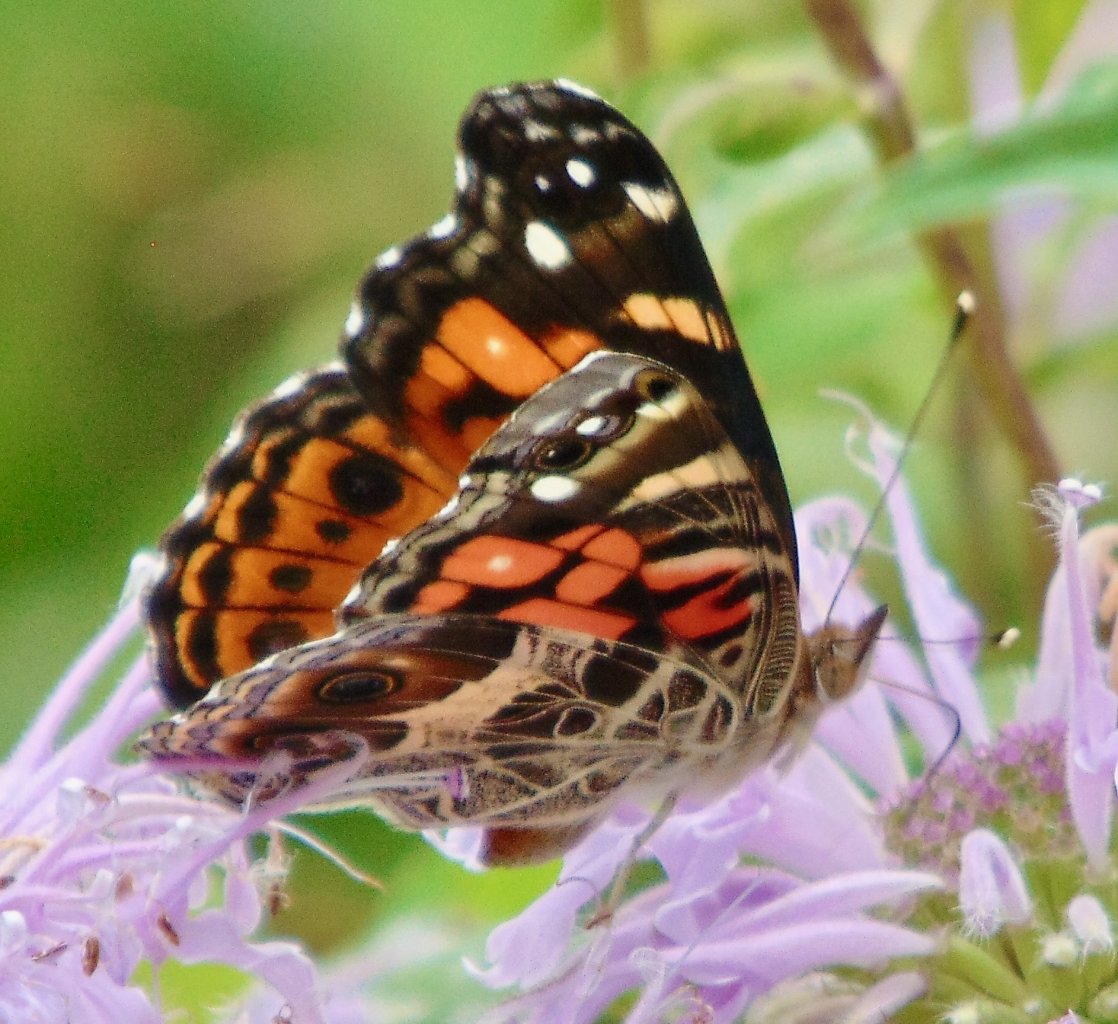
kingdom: Animalia
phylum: Arthropoda
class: Insecta
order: Lepidoptera
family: Nymphalidae
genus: Vanessa
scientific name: Vanessa virginiensis
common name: American Lady
